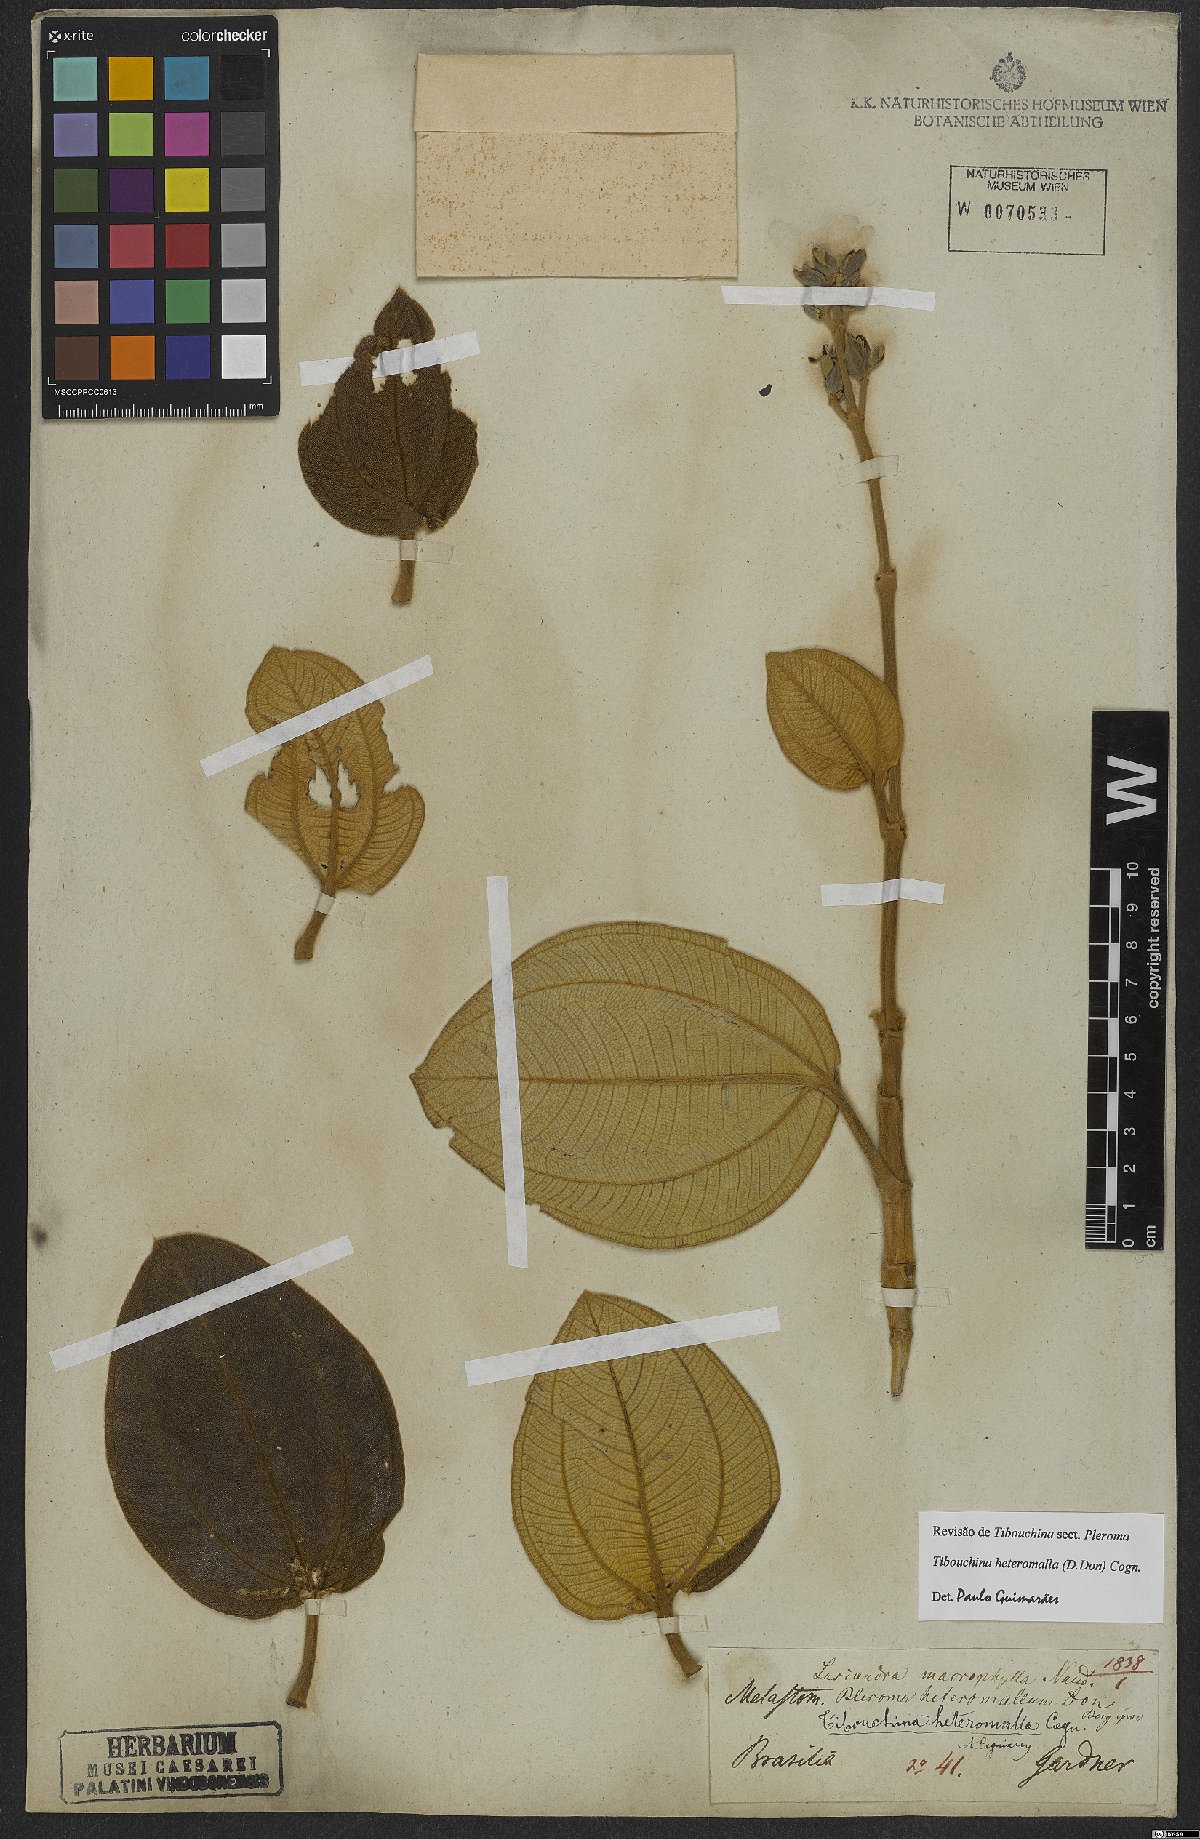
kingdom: Plantae
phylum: Tracheophyta
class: Magnoliopsida
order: Myrtales
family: Melastomataceae
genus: Pleroma
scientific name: Pleroma heteromallum
